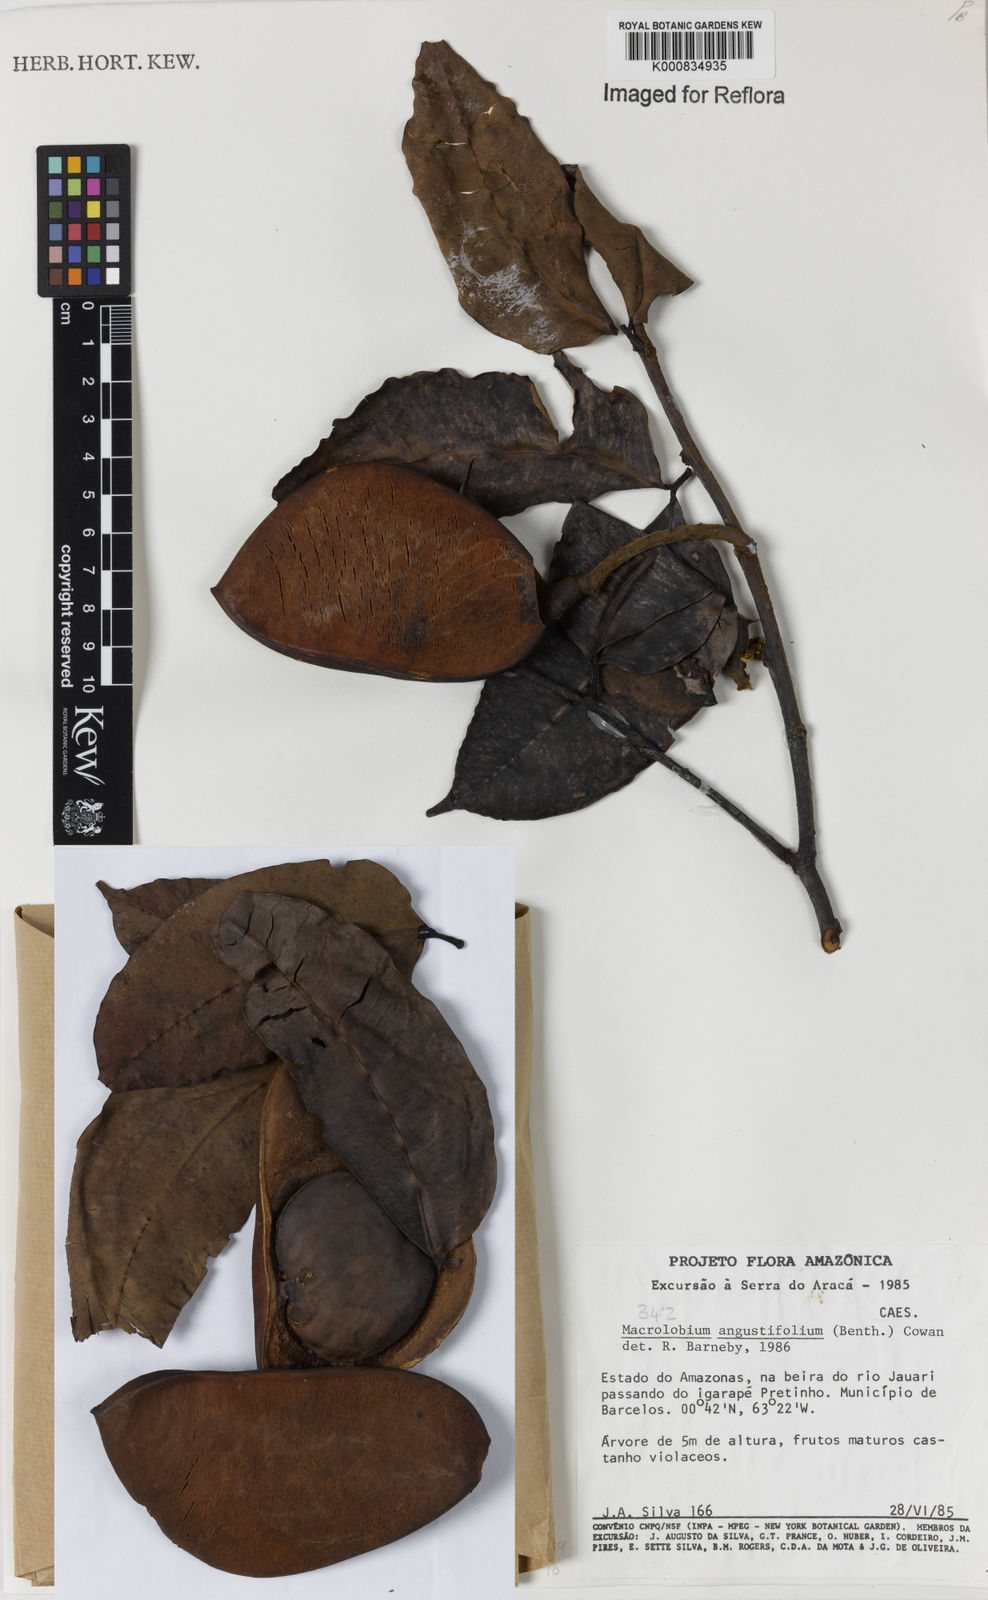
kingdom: Plantae
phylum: Tracheophyta
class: Magnoliopsida
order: Fabales
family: Fabaceae
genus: Macrolobium
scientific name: Macrolobium angustifolium
